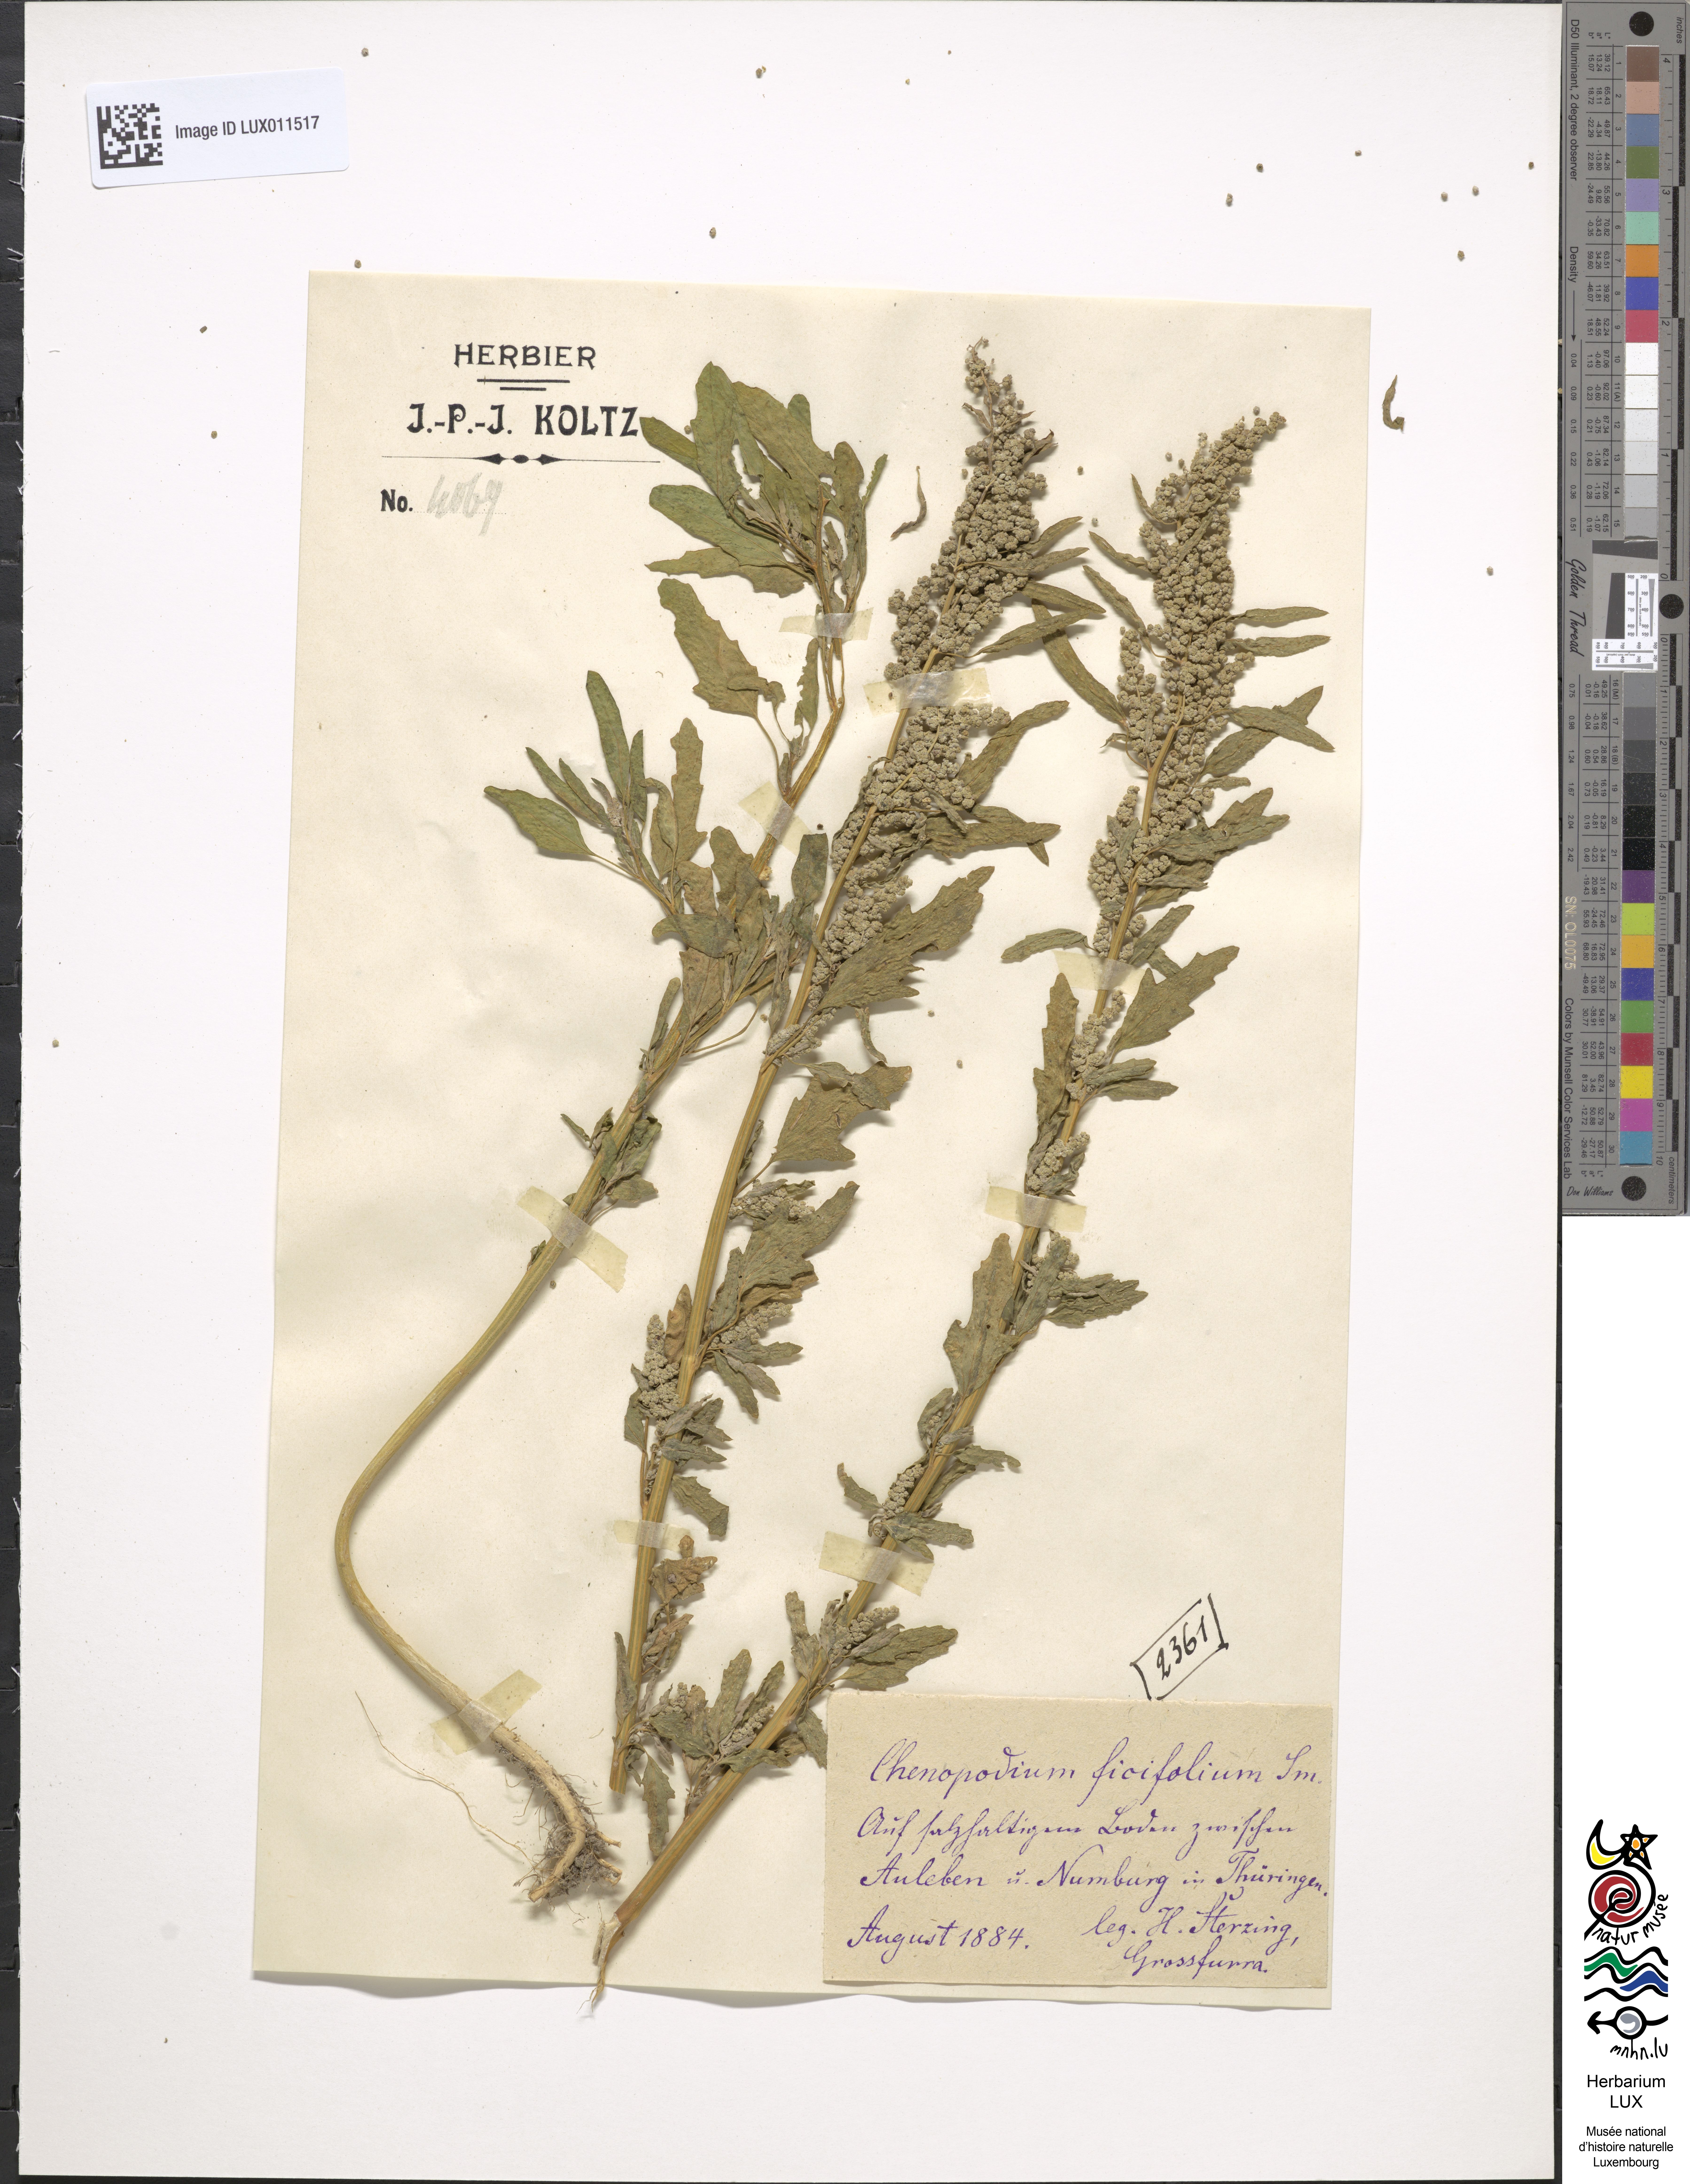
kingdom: Plantae
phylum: Tracheophyta
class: Magnoliopsida
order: Caryophyllales
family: Amaranthaceae
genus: Chenopodium
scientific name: Chenopodium ficifolium
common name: Fig-leaved goosefoot
